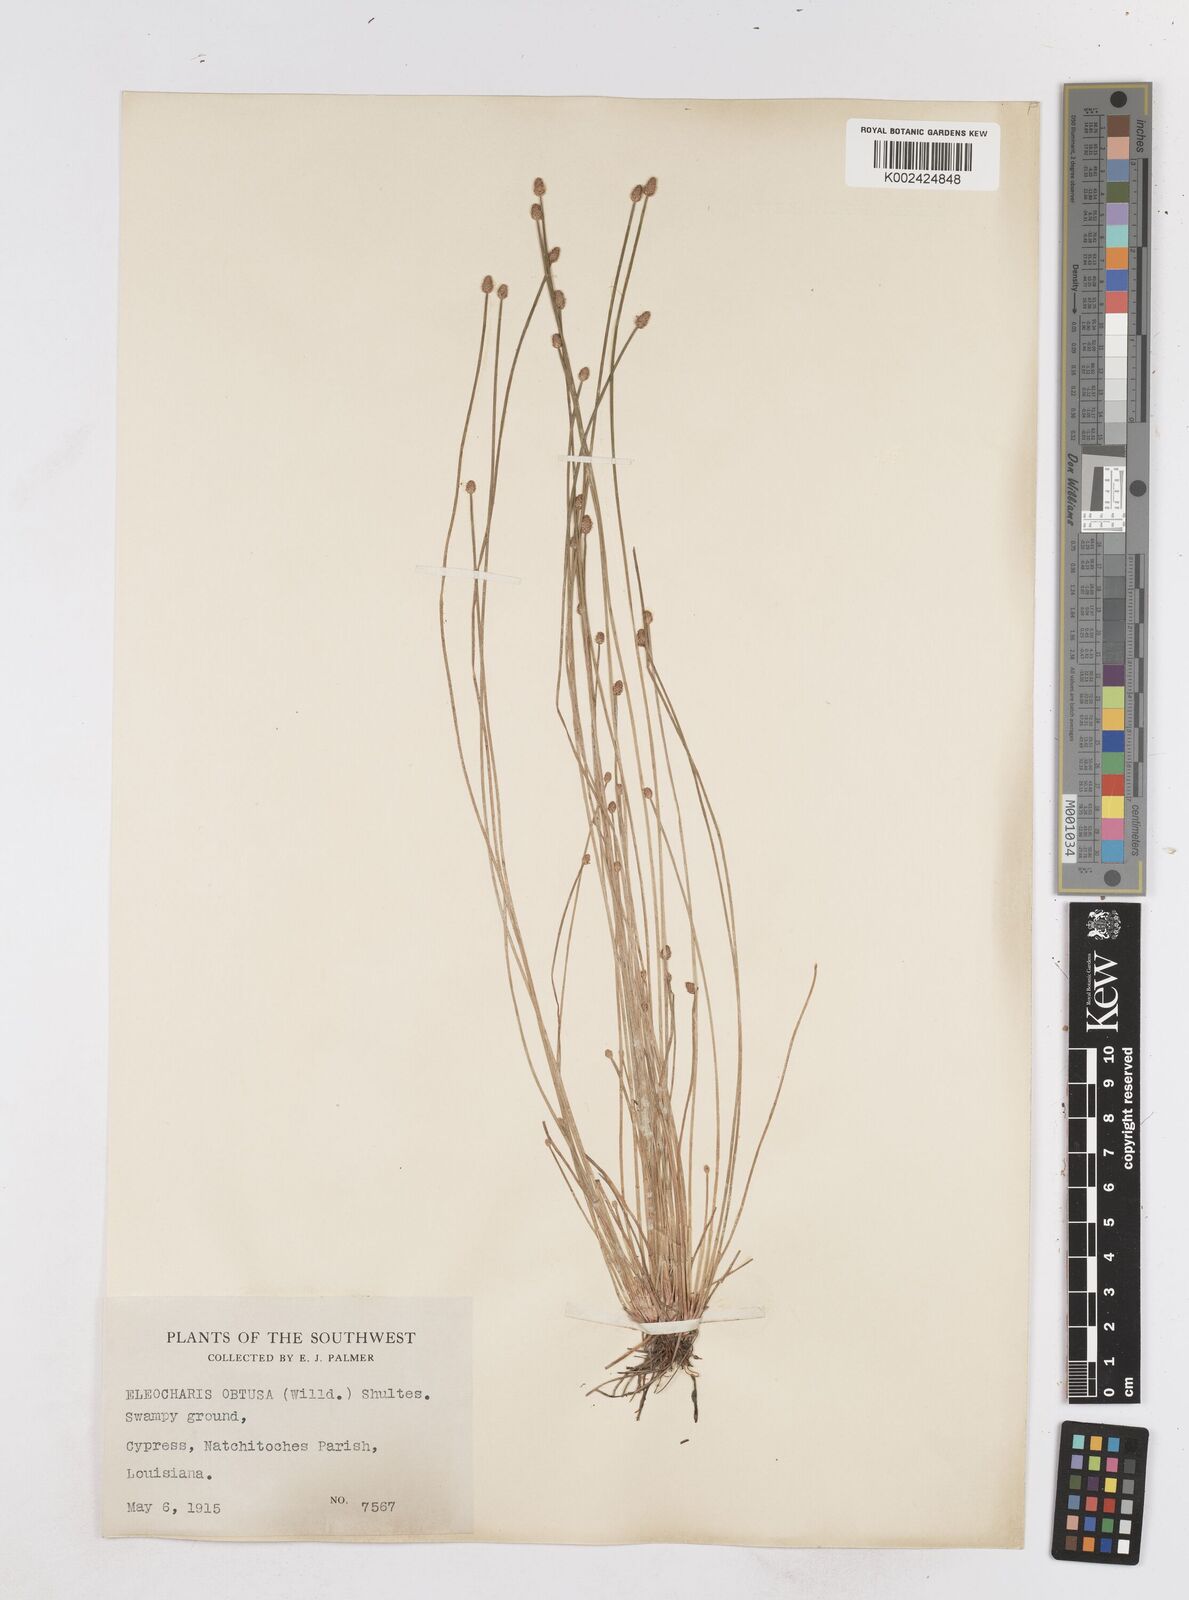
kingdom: Plantae
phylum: Tracheophyta
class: Liliopsida
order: Poales
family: Cyperaceae
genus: Eleocharis
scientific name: Eleocharis obtusa
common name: Blunt spikerush
